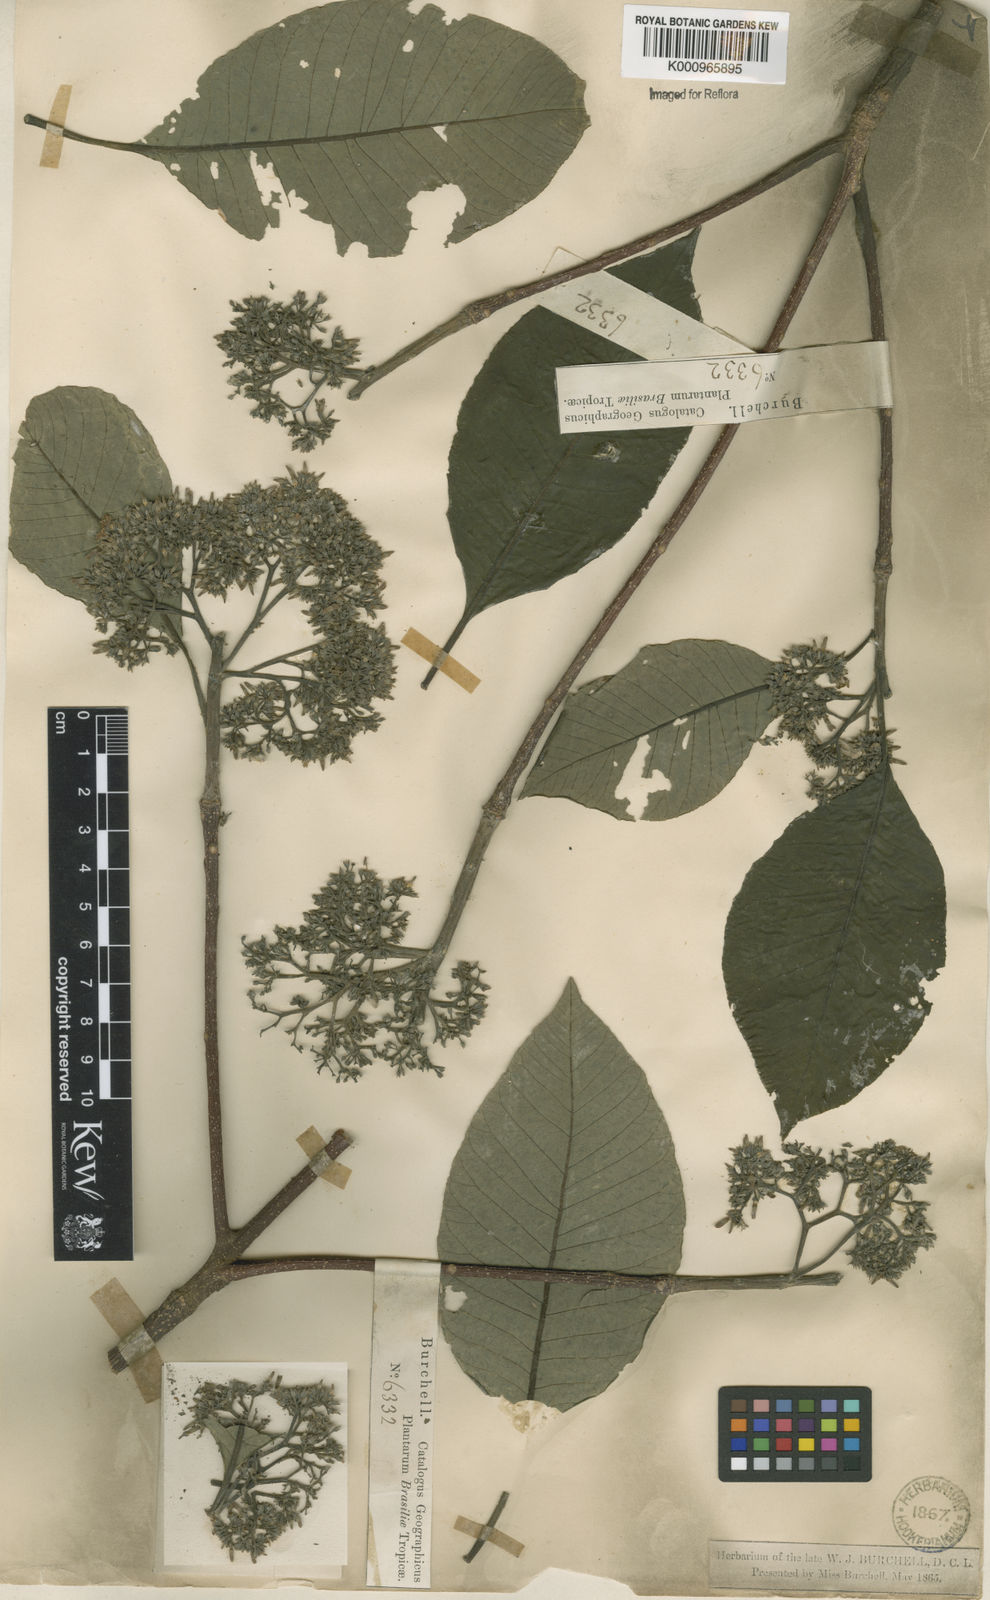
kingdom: Plantae
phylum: Tracheophyta
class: Magnoliopsida
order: Gentianales
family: Apocynaceae
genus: Aspidosperma
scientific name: Aspidosperma subincanum
